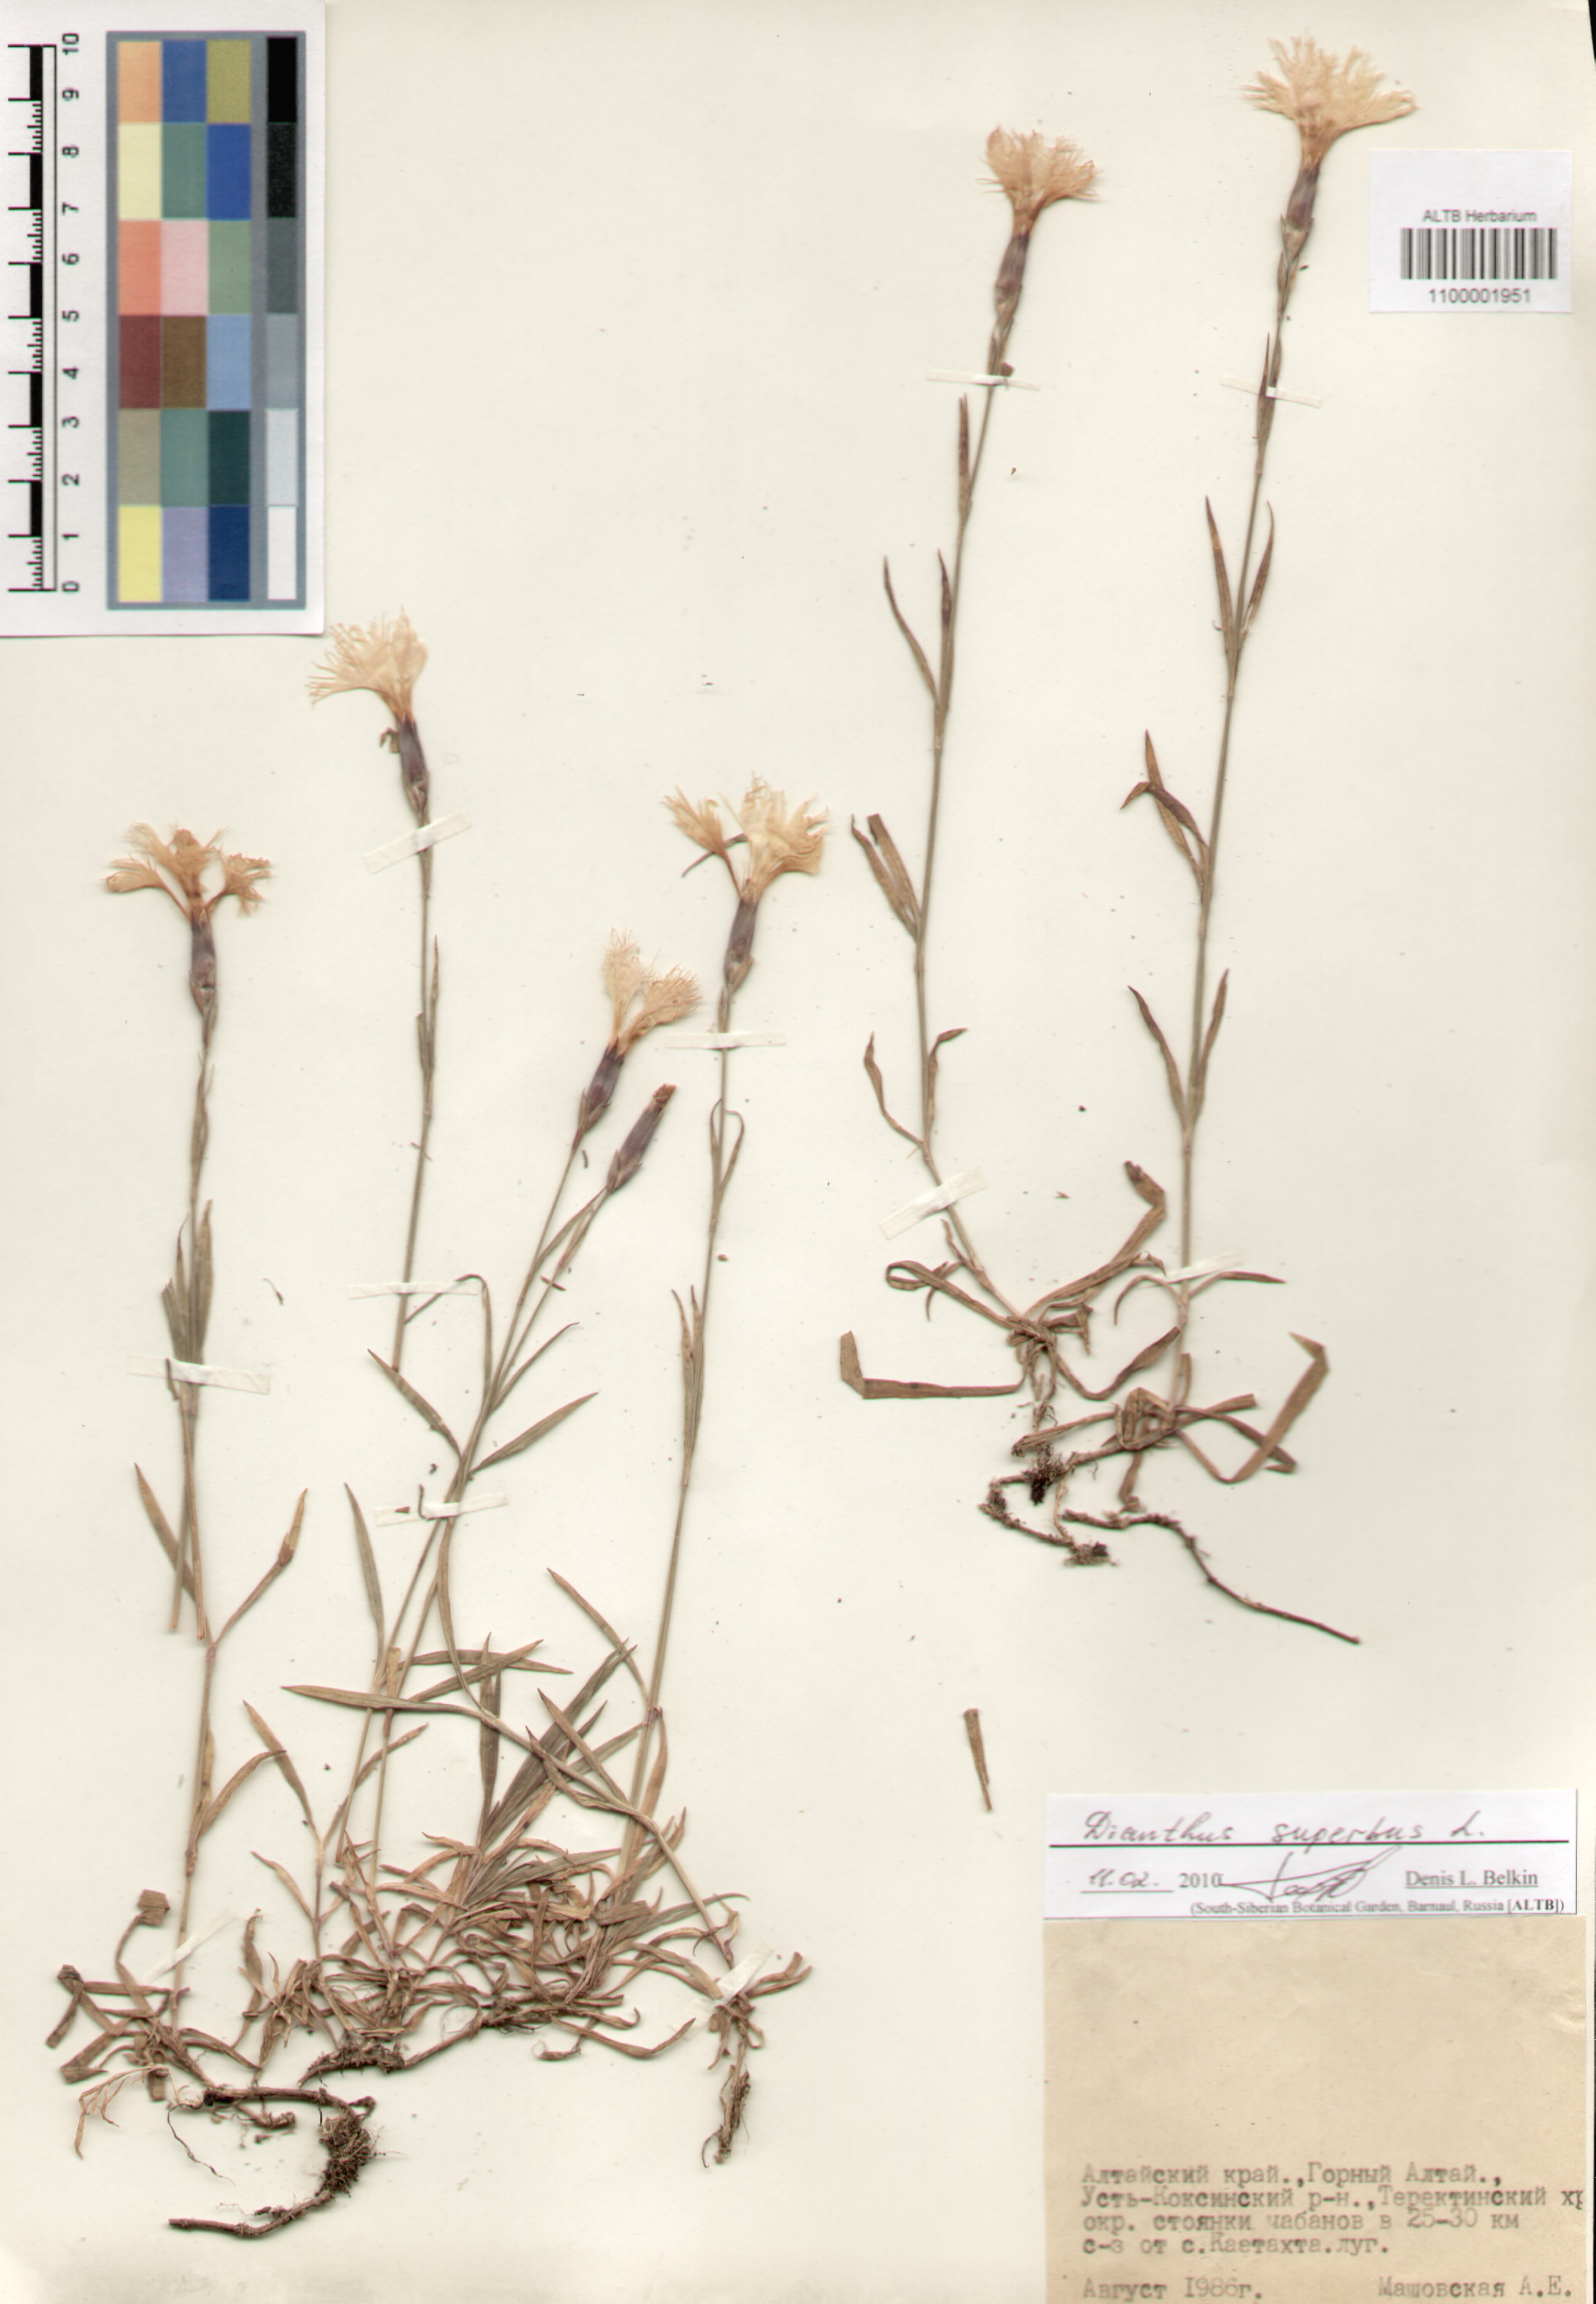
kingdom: Plantae
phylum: Tracheophyta
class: Magnoliopsida
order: Caryophyllales
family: Caryophyllaceae
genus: Dianthus
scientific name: Dianthus superbus
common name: Fringed pink
